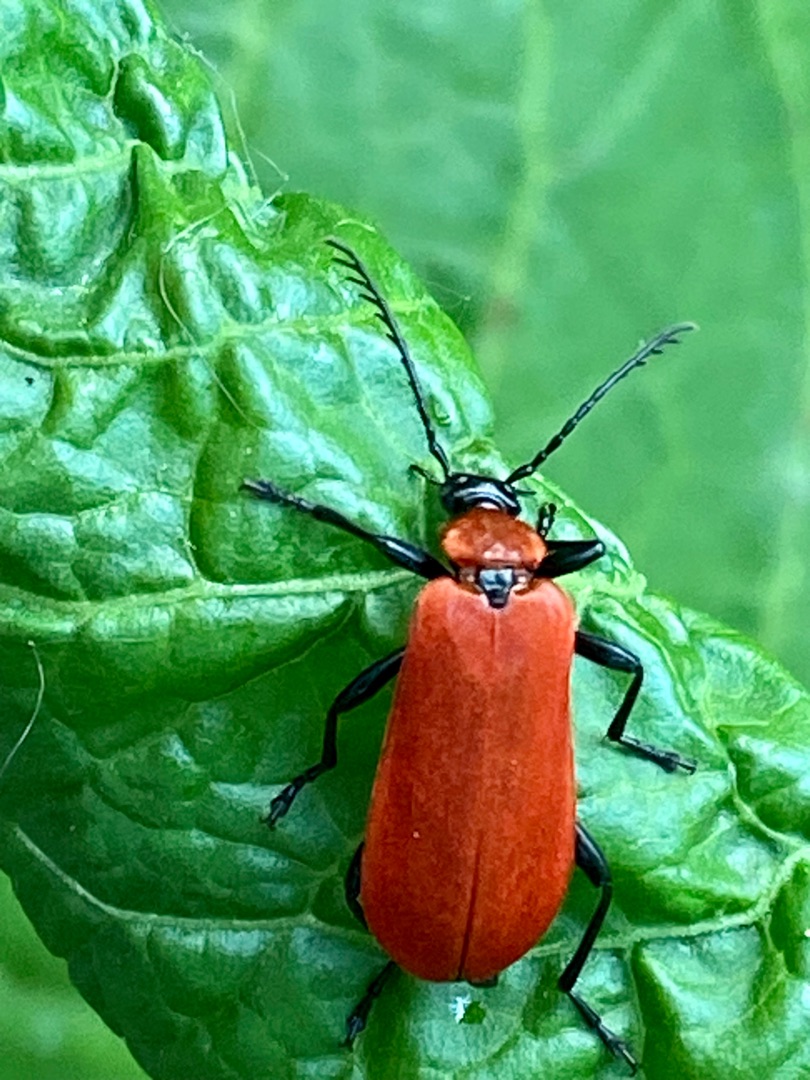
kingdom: Animalia
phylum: Arthropoda
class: Insecta
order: Coleoptera
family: Pyrochroidae
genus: Pyrochroa
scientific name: Pyrochroa coccinea
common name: Sorthovedet kardinalbille
